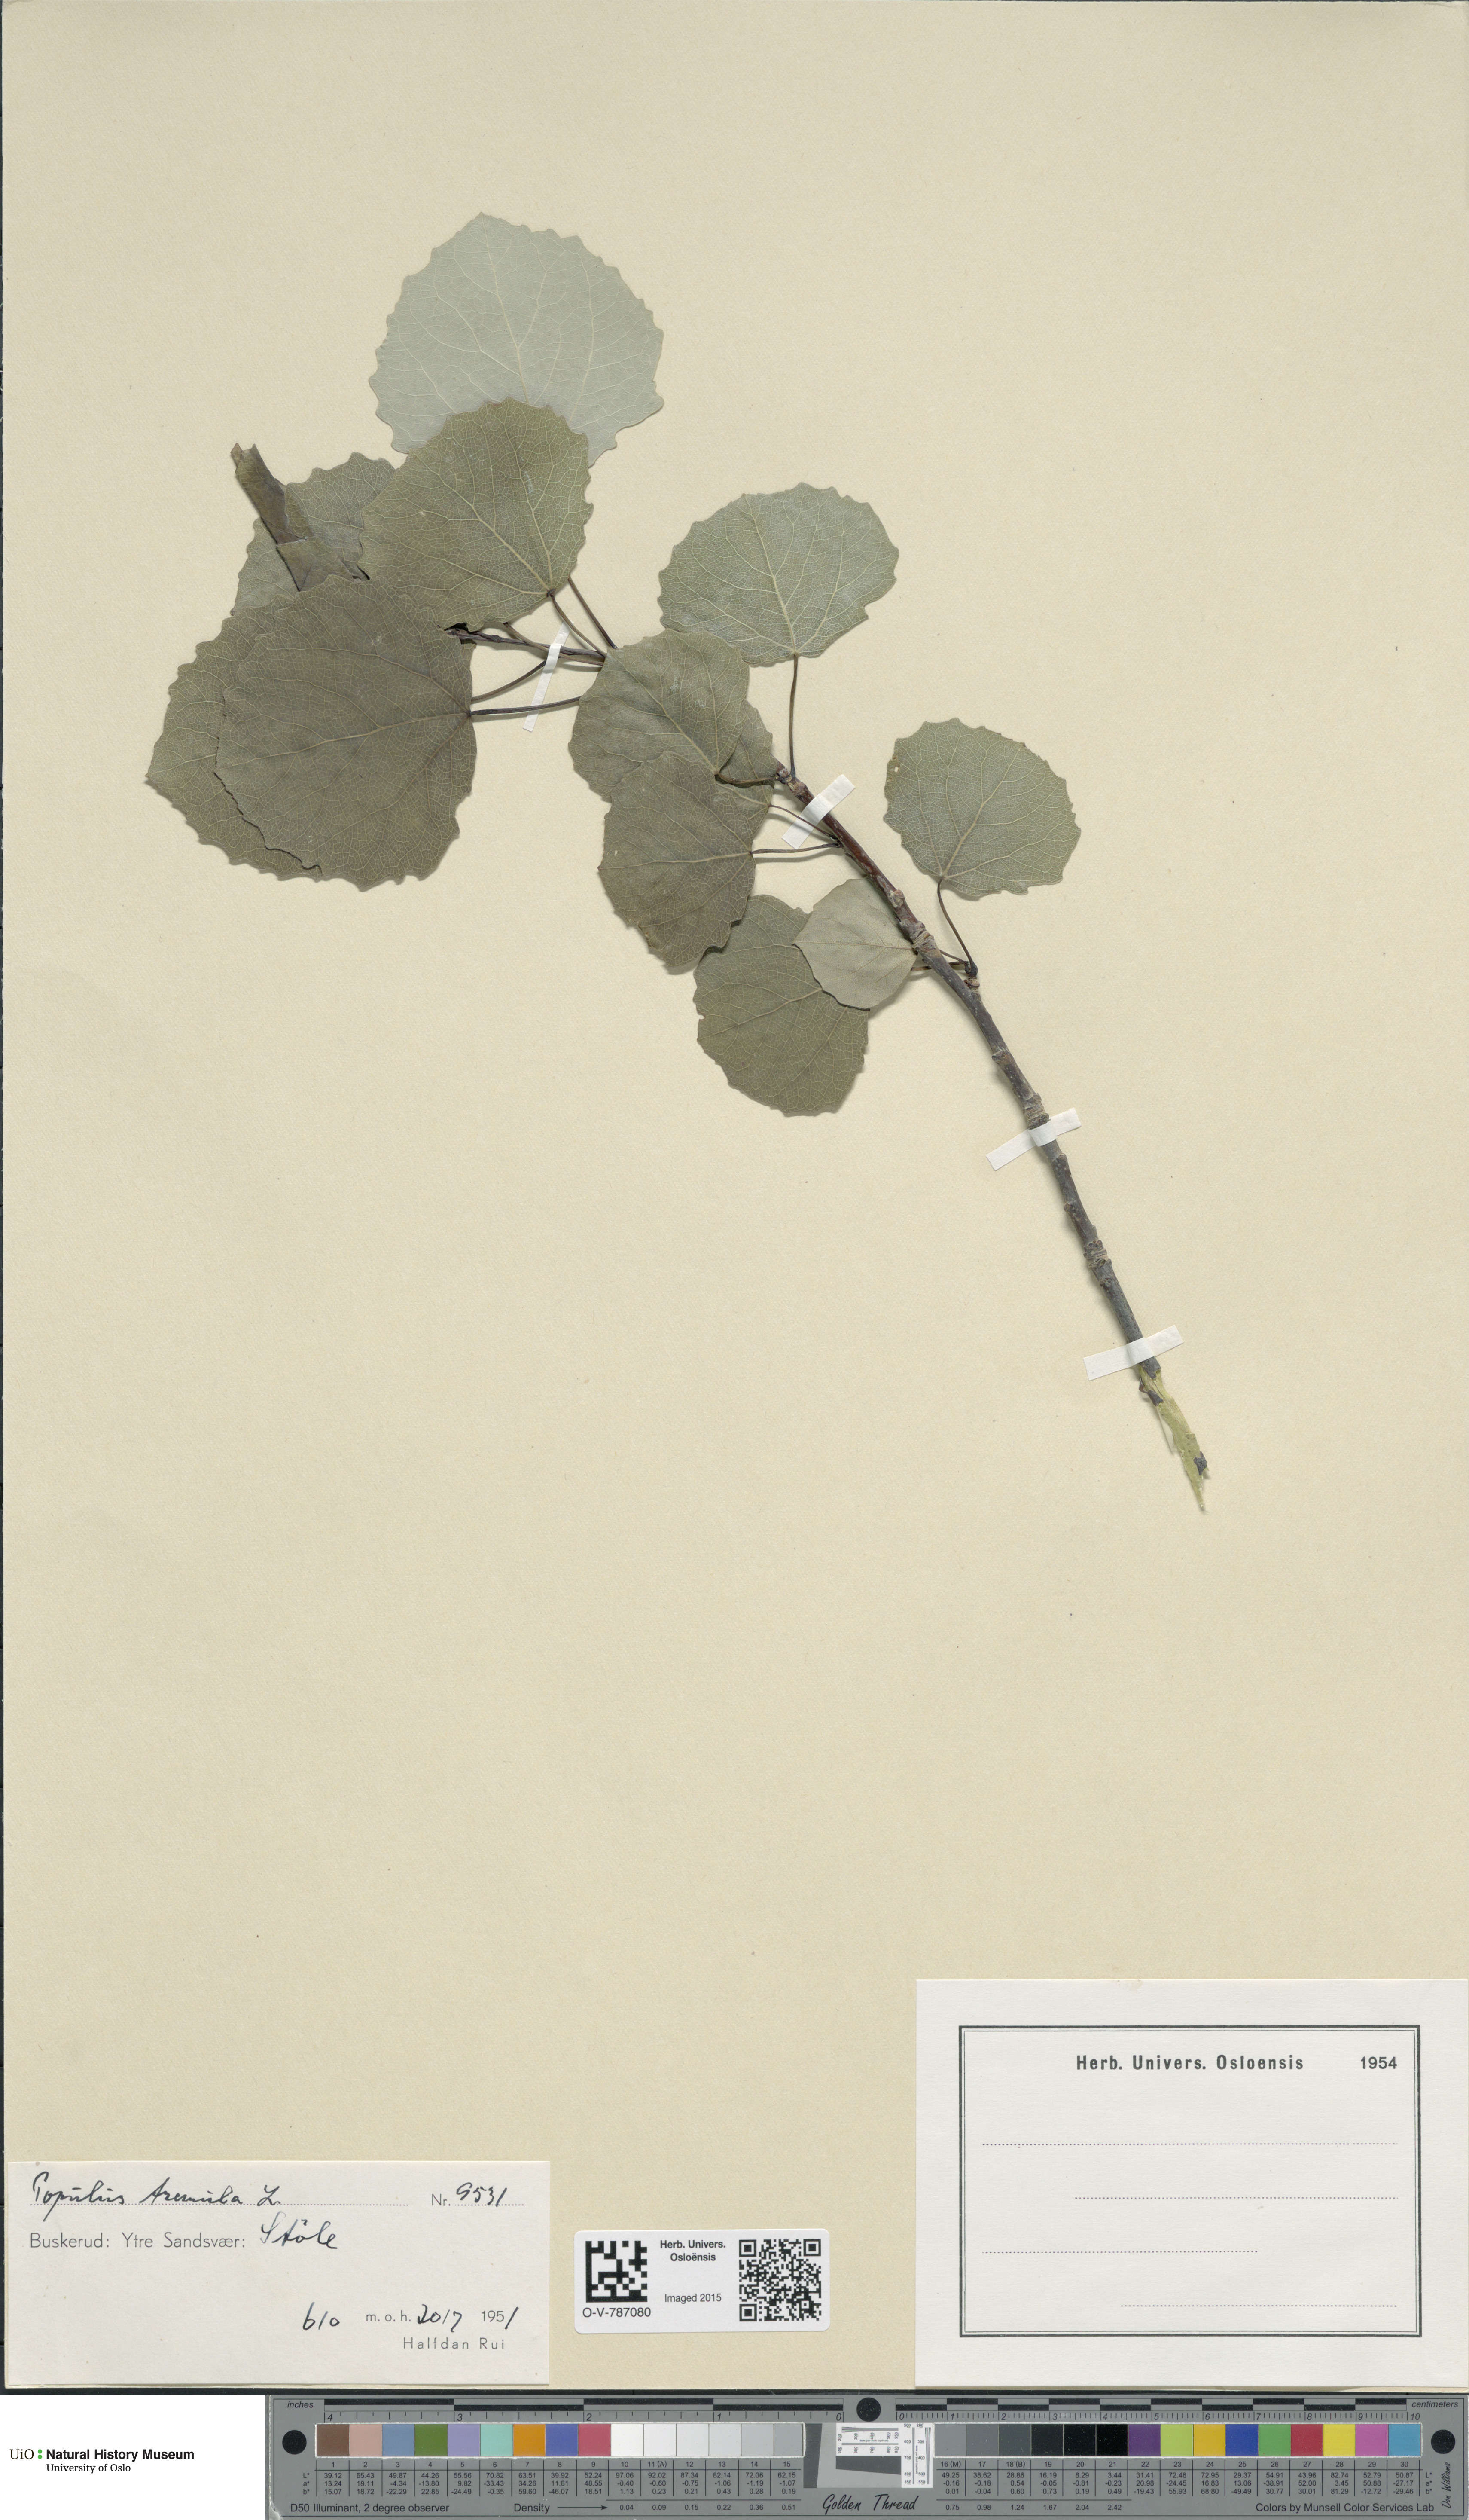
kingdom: Plantae
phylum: Tracheophyta
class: Magnoliopsida
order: Malpighiales
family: Salicaceae
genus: Populus
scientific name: Populus tremula
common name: European aspen
